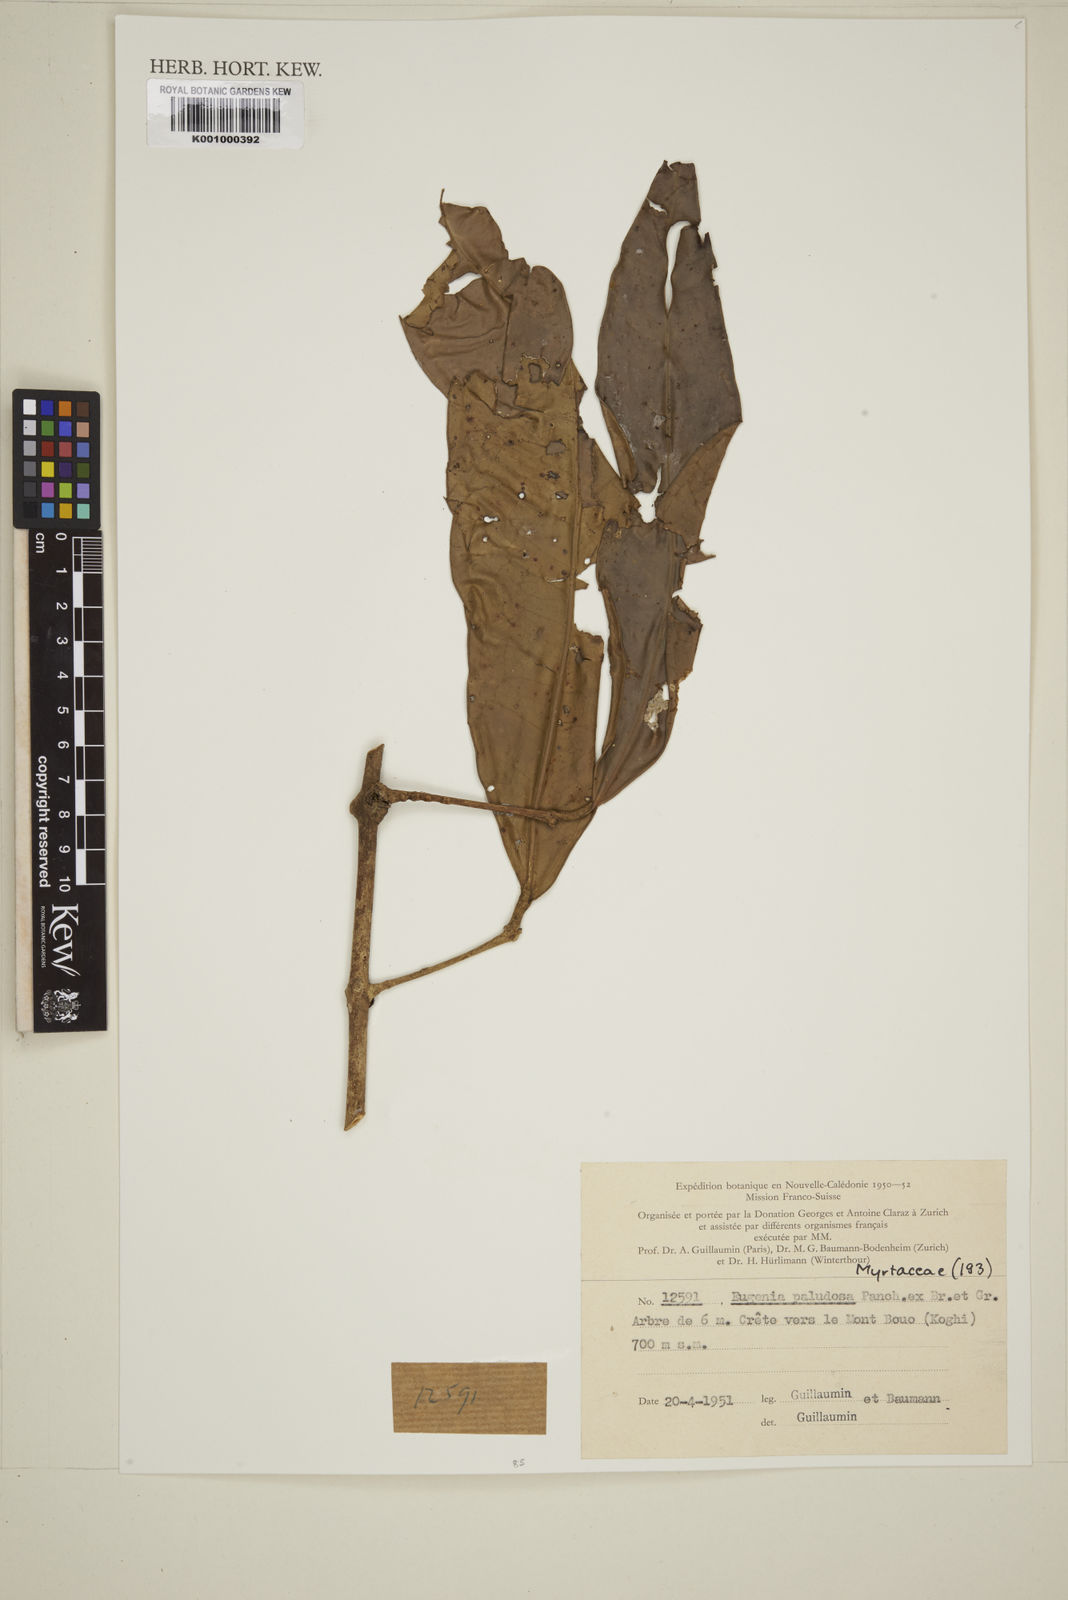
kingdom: Plantae
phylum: Tracheophyta
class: Magnoliopsida
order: Myrtales
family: Myrtaceae
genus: Eugenia
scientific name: Eugenia paludosa
